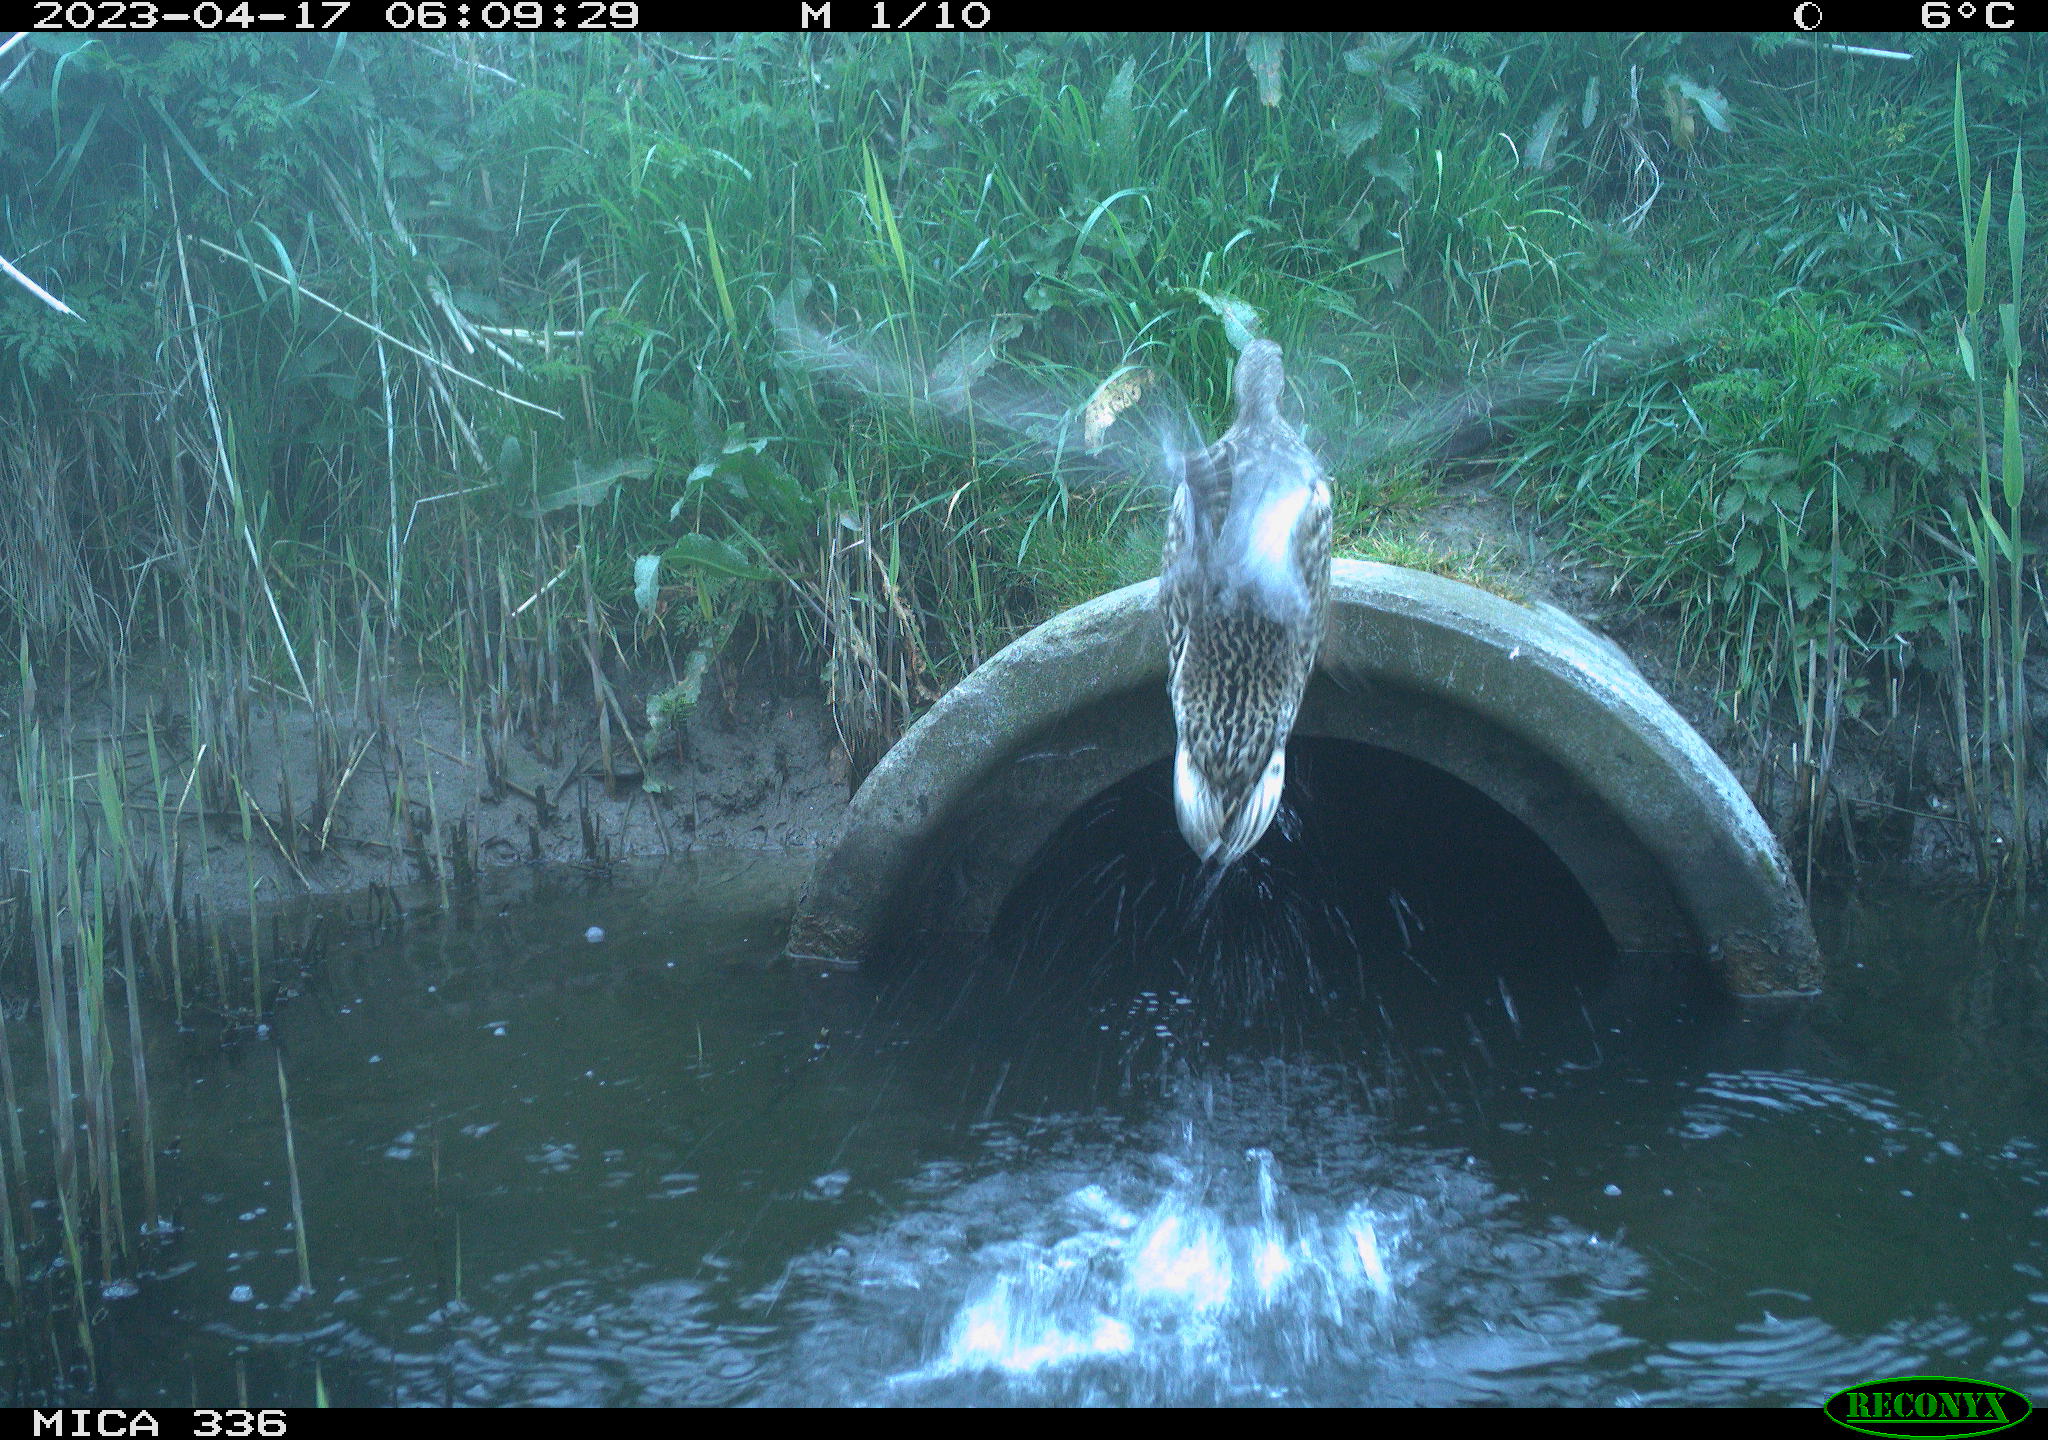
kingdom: Animalia
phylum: Chordata
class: Aves
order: Anseriformes
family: Anatidae
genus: Anas
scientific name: Anas
